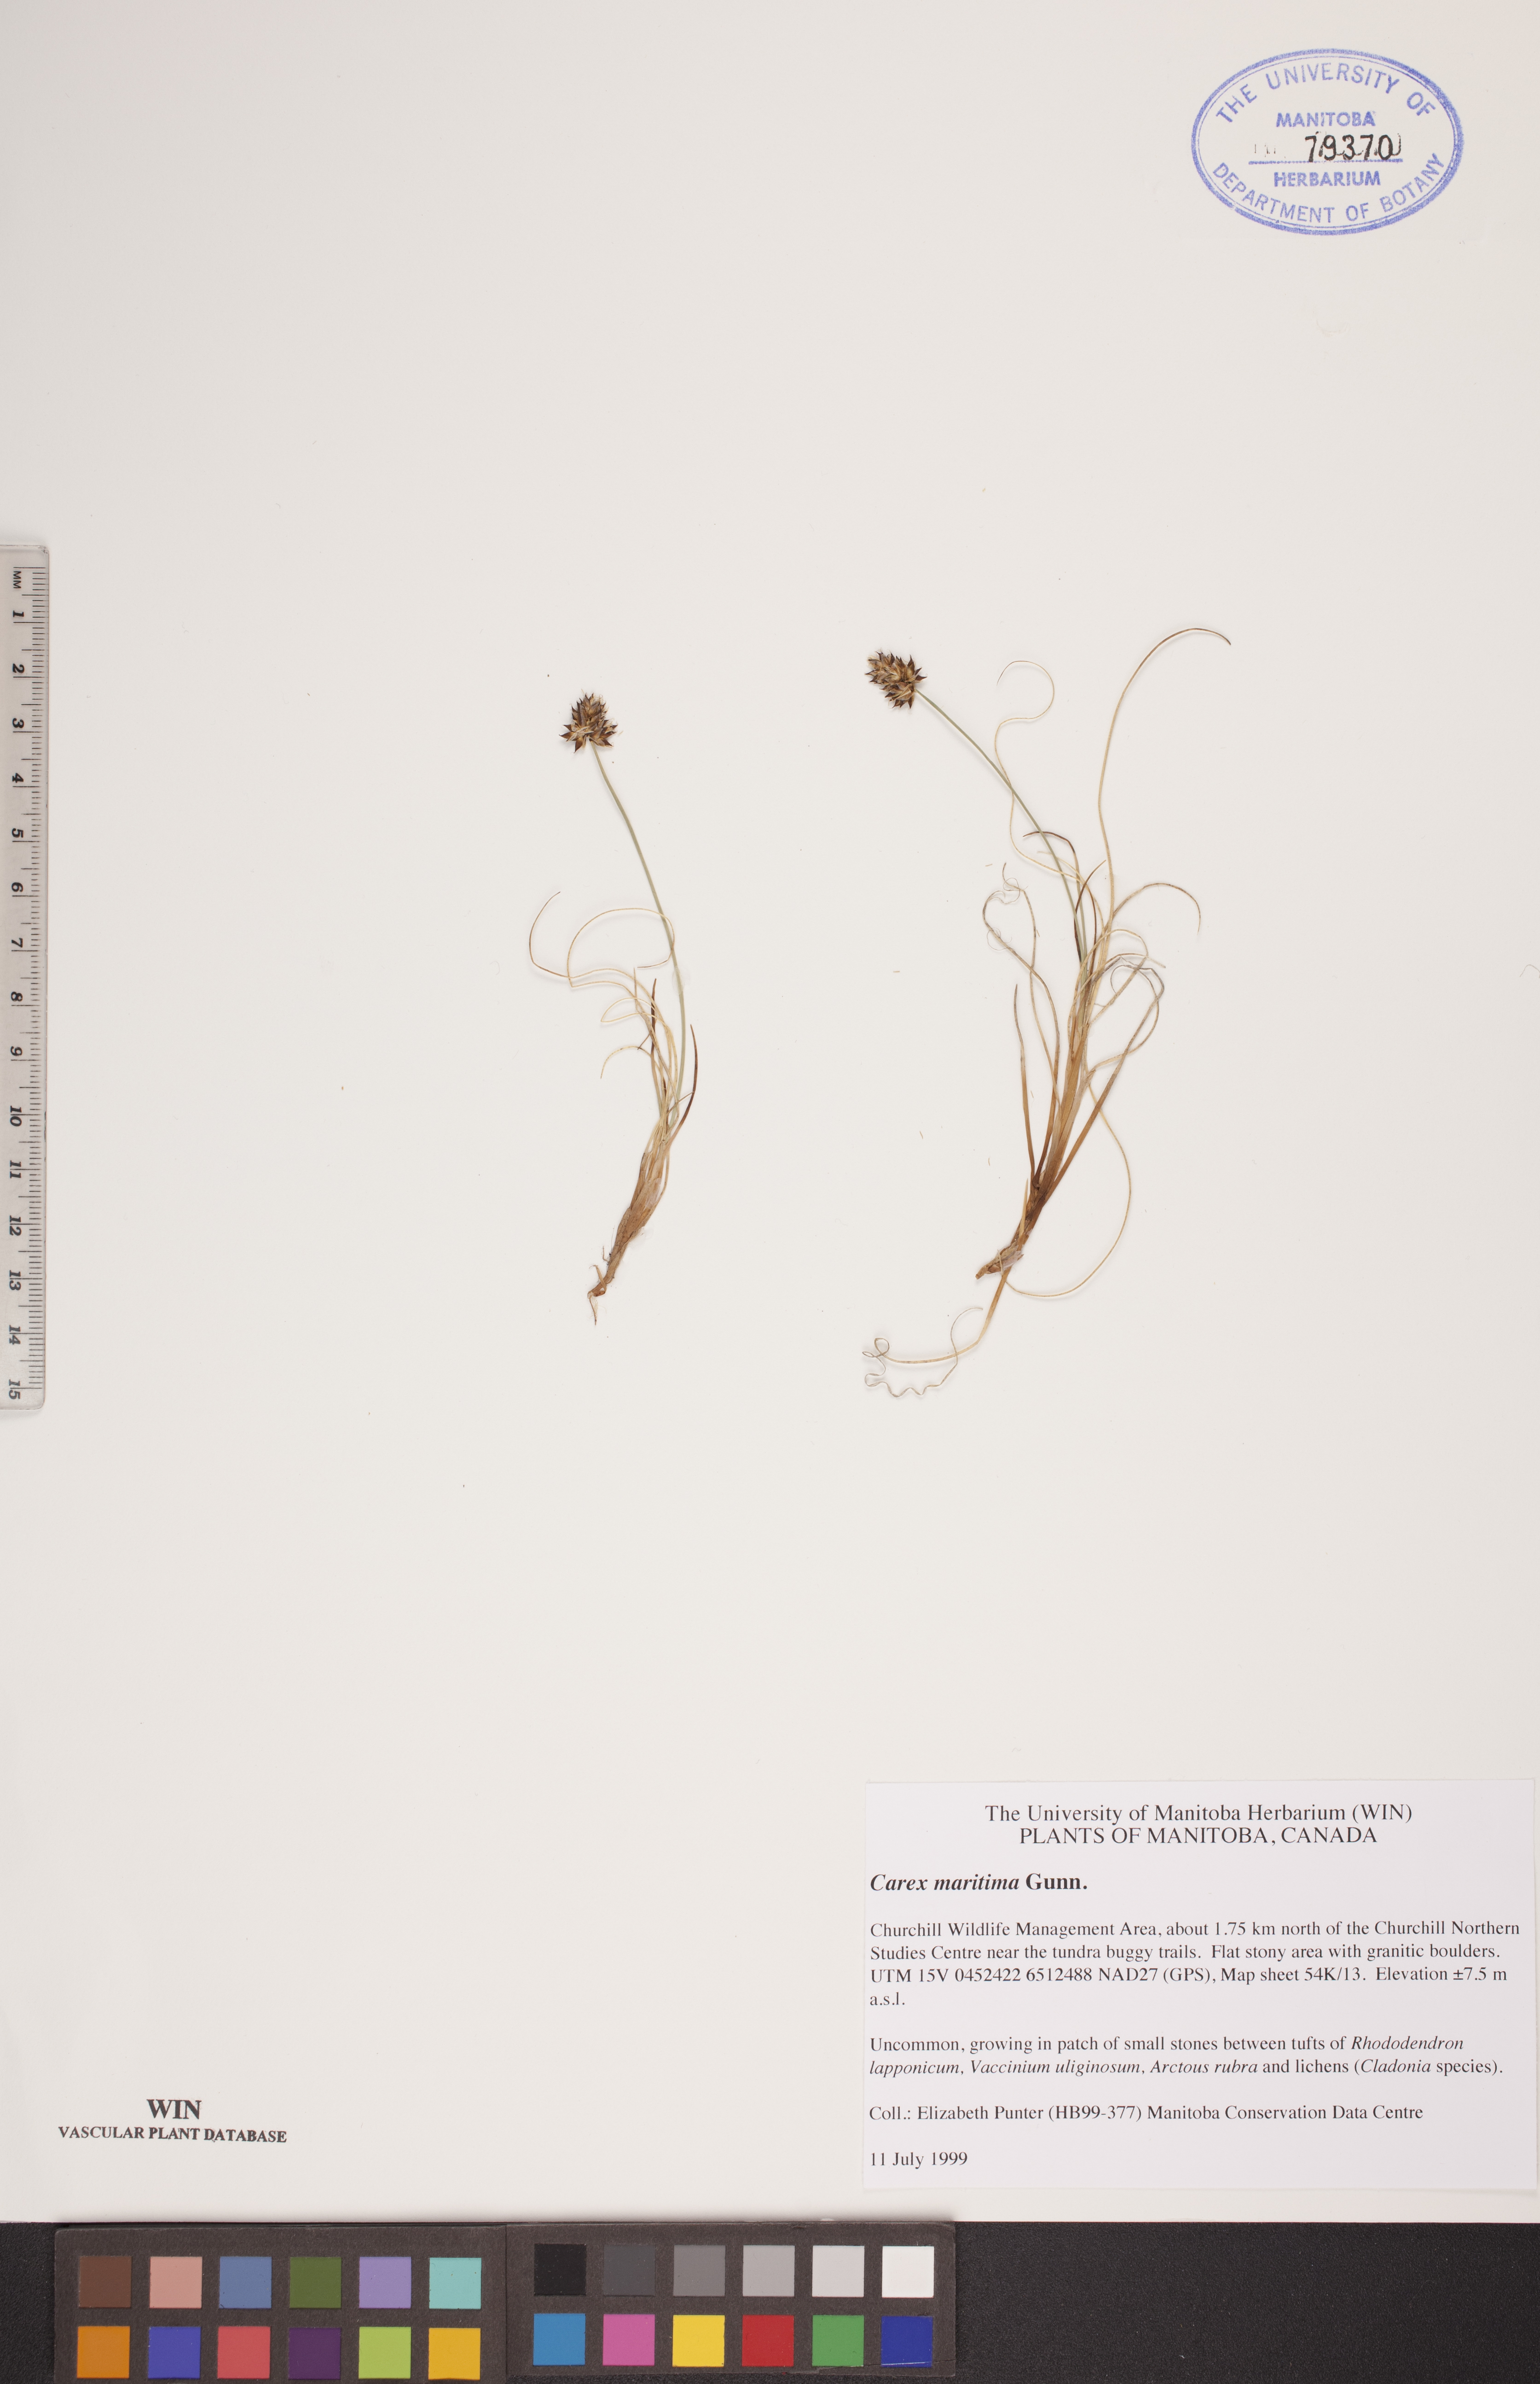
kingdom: Plantae
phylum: Tracheophyta
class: Liliopsida
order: Poales
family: Cyperaceae
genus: Carex
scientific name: Carex maritima
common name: Curved sedge
